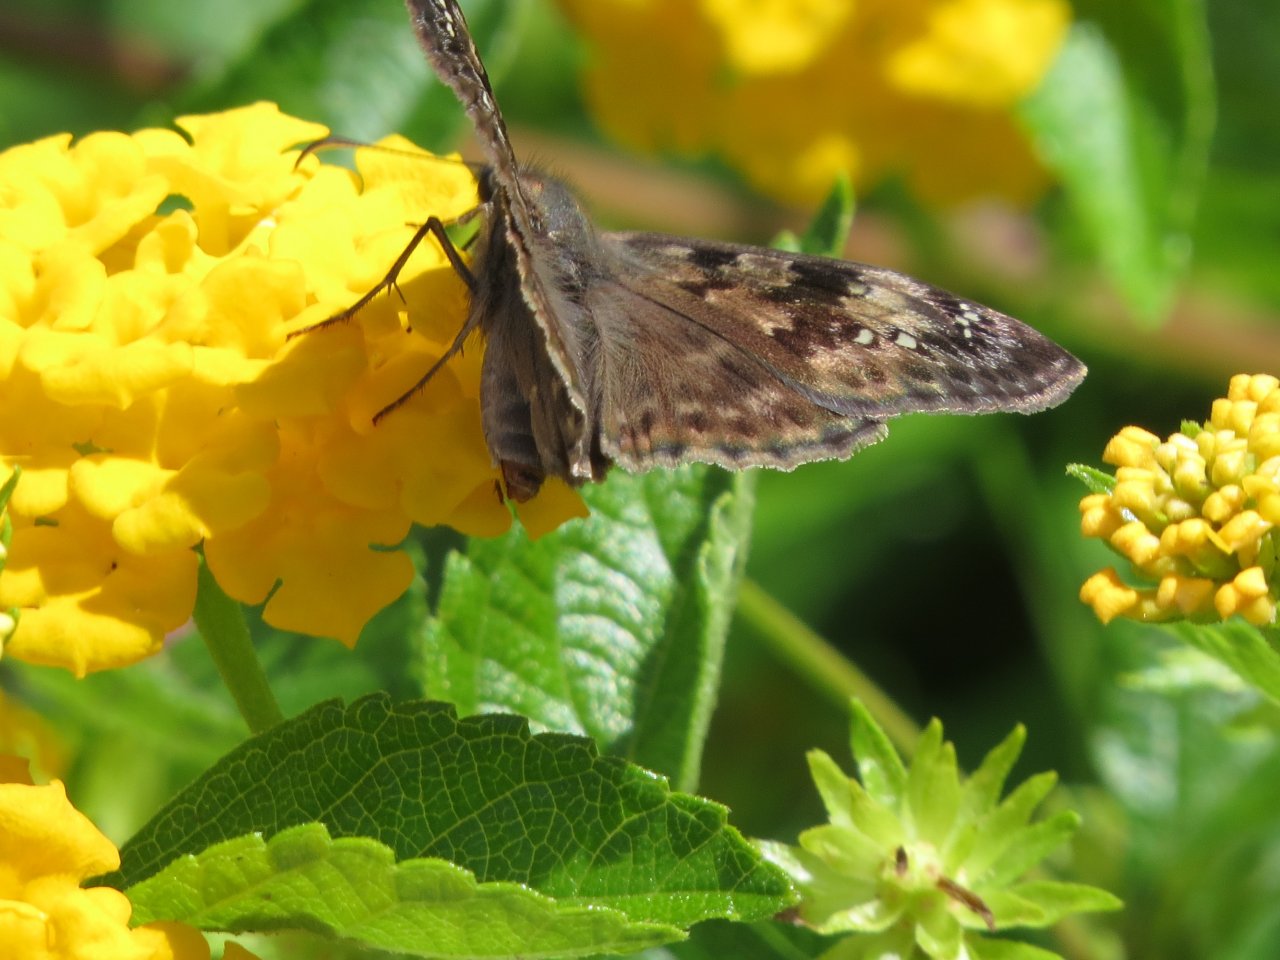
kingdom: Animalia
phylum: Arthropoda
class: Insecta
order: Lepidoptera
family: Hesperiidae
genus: Gesta
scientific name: Gesta
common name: Horace's Duskywing
